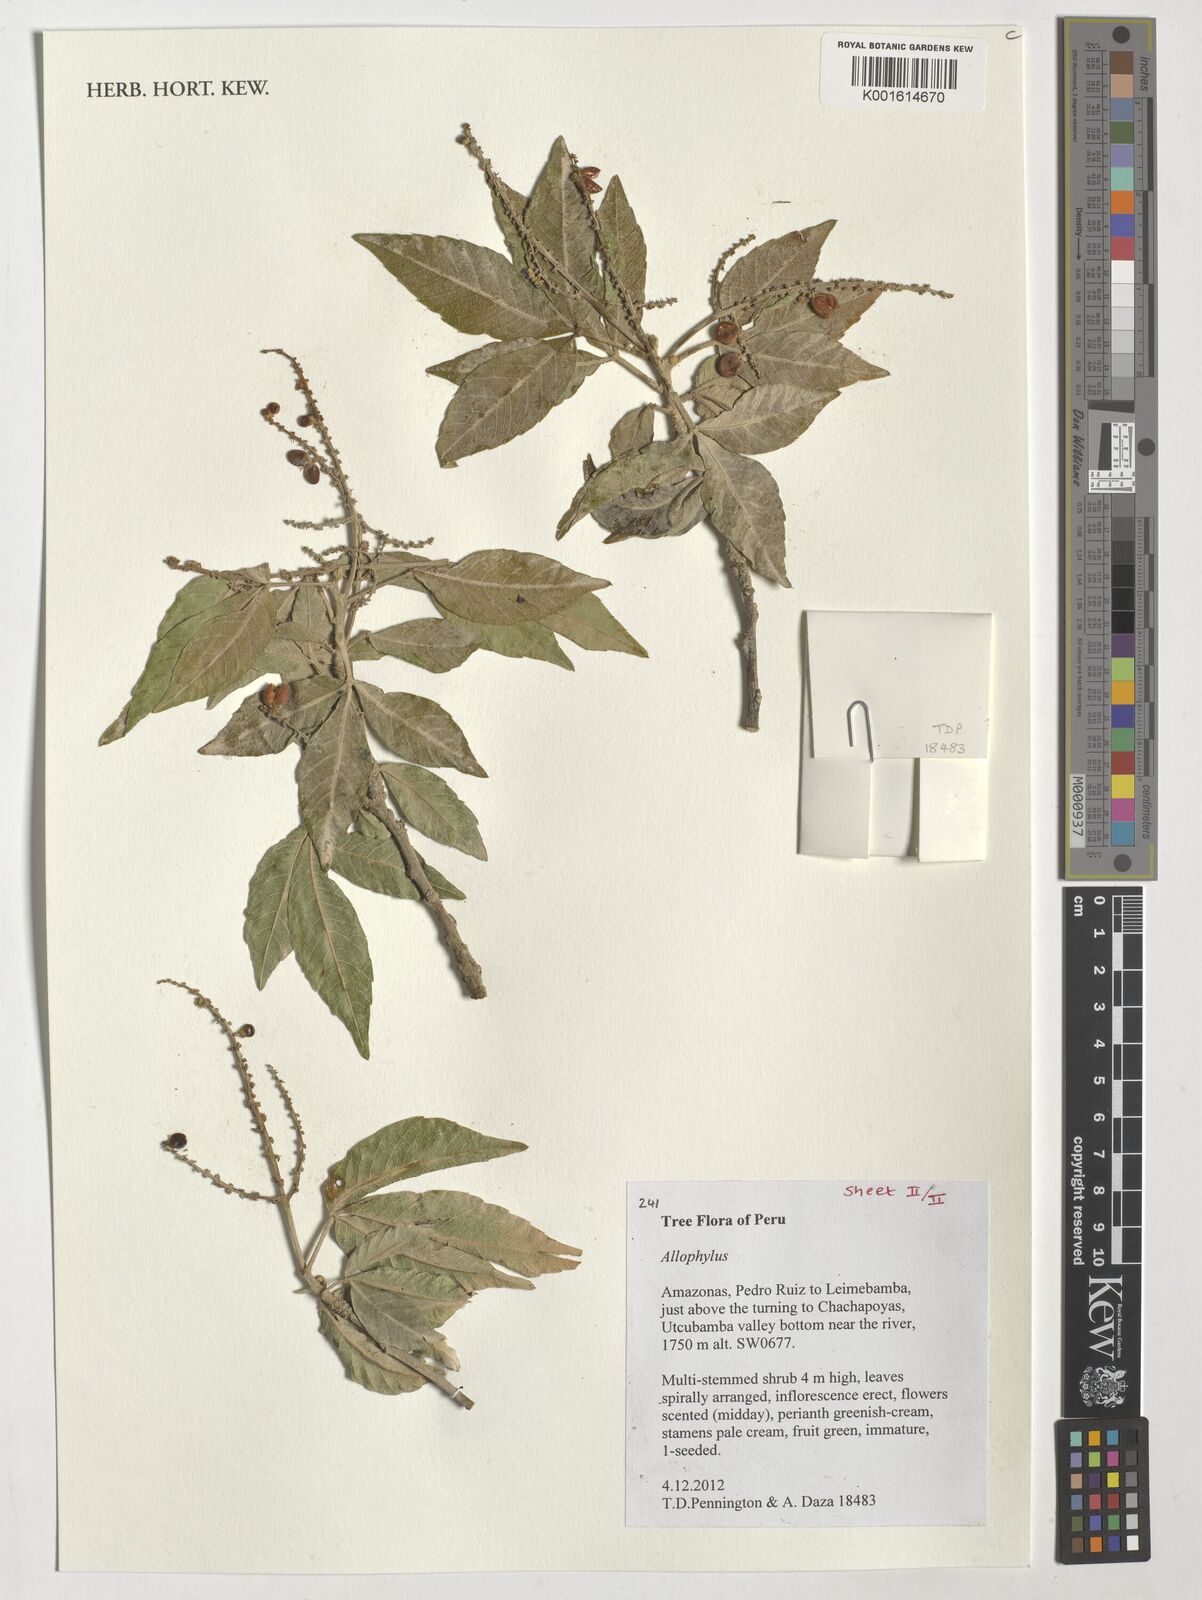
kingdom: Plantae
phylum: Tracheophyta
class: Magnoliopsida
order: Sapindales
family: Sapindaceae
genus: Allophylus
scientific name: Allophylus
